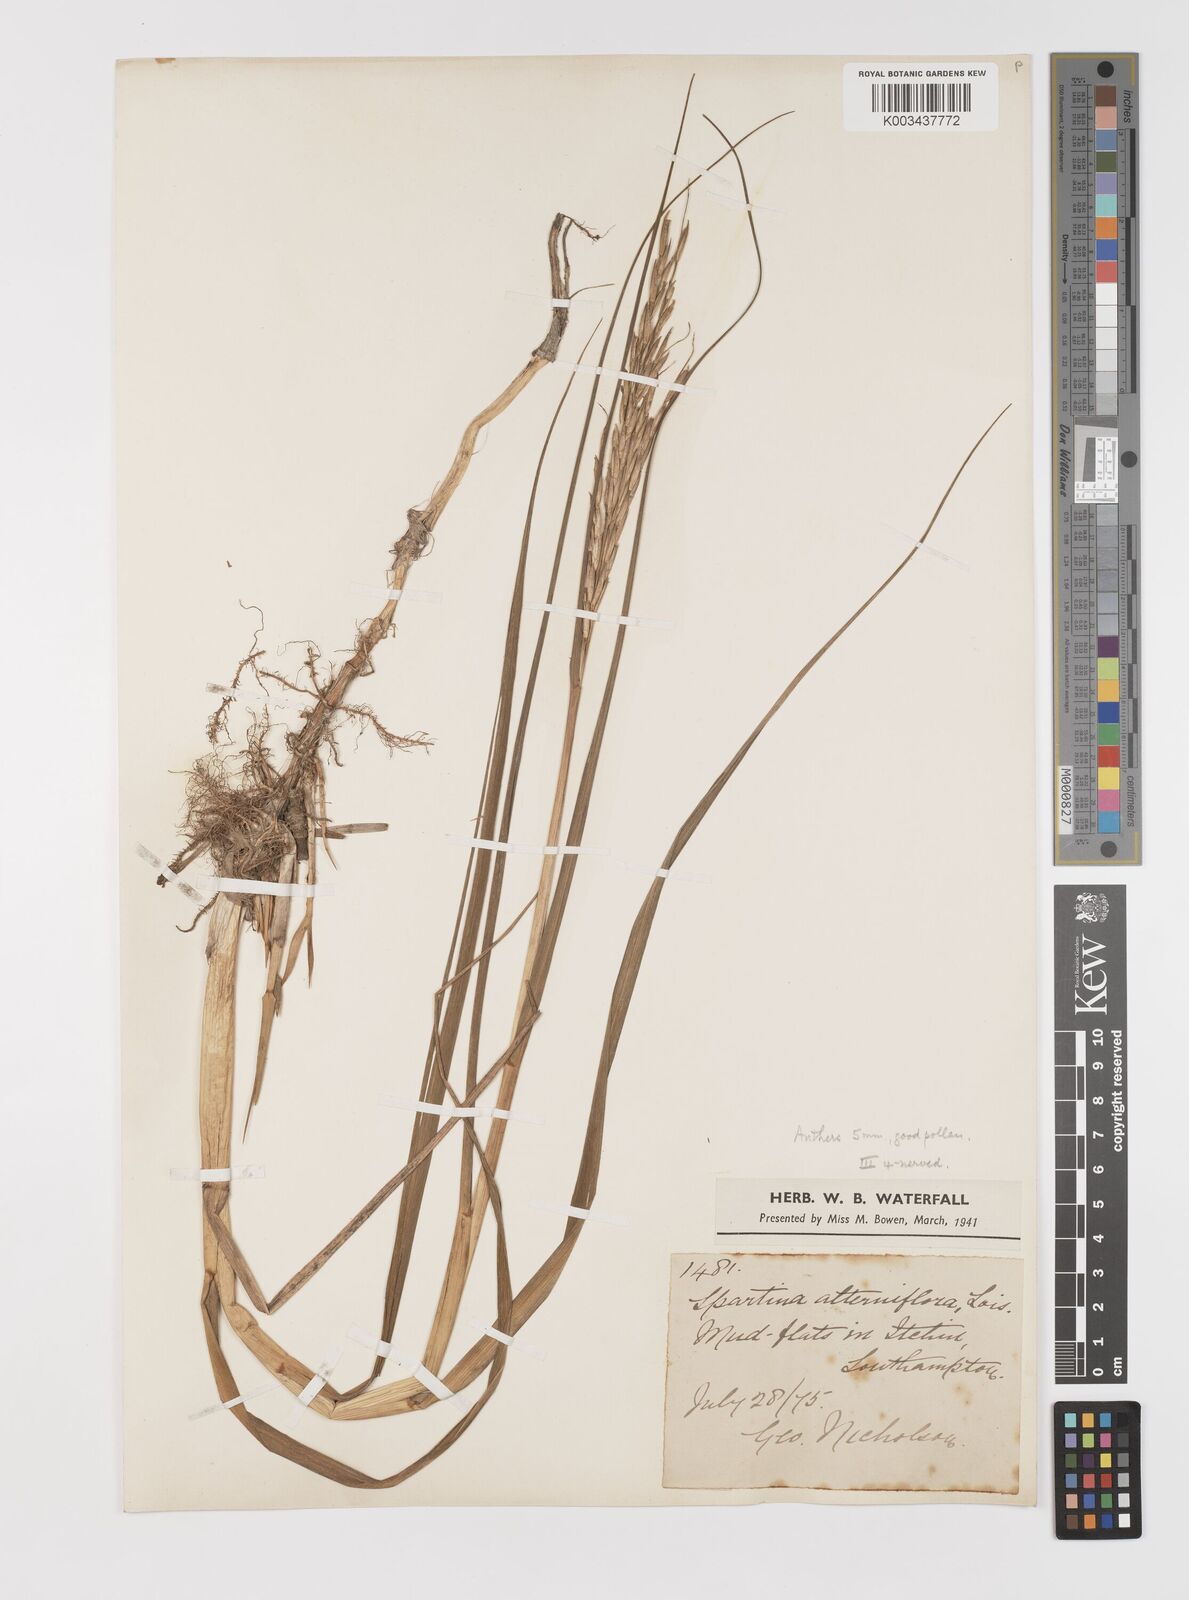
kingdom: Plantae
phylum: Tracheophyta
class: Liliopsida
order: Poales
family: Poaceae
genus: Sporobolus
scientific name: Sporobolus alterniflorus
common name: Atlantic cordgrass
